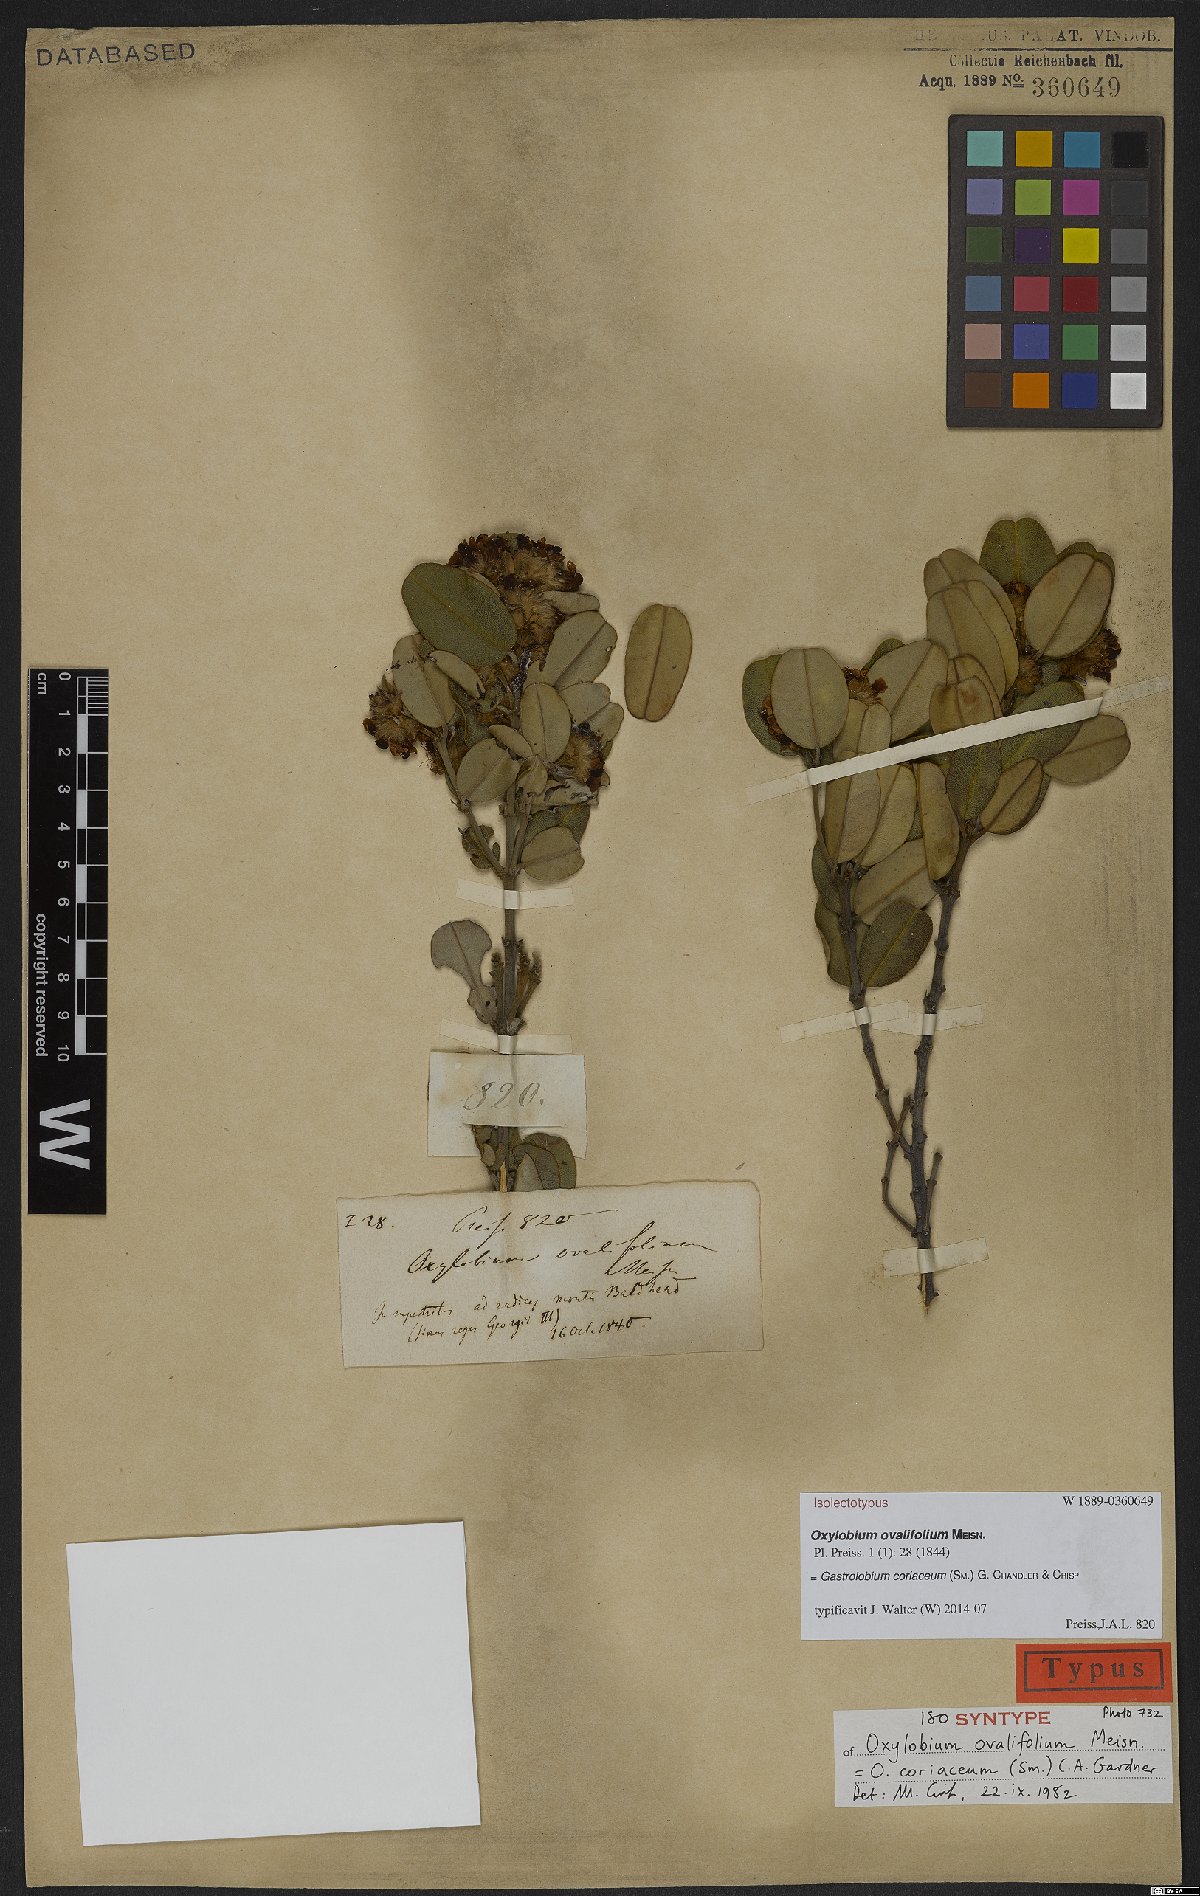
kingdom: Plantae
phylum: Tracheophyta
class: Magnoliopsida
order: Fabales
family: Fabaceae
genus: Gastrolobium
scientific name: Gastrolobium coriaceum
